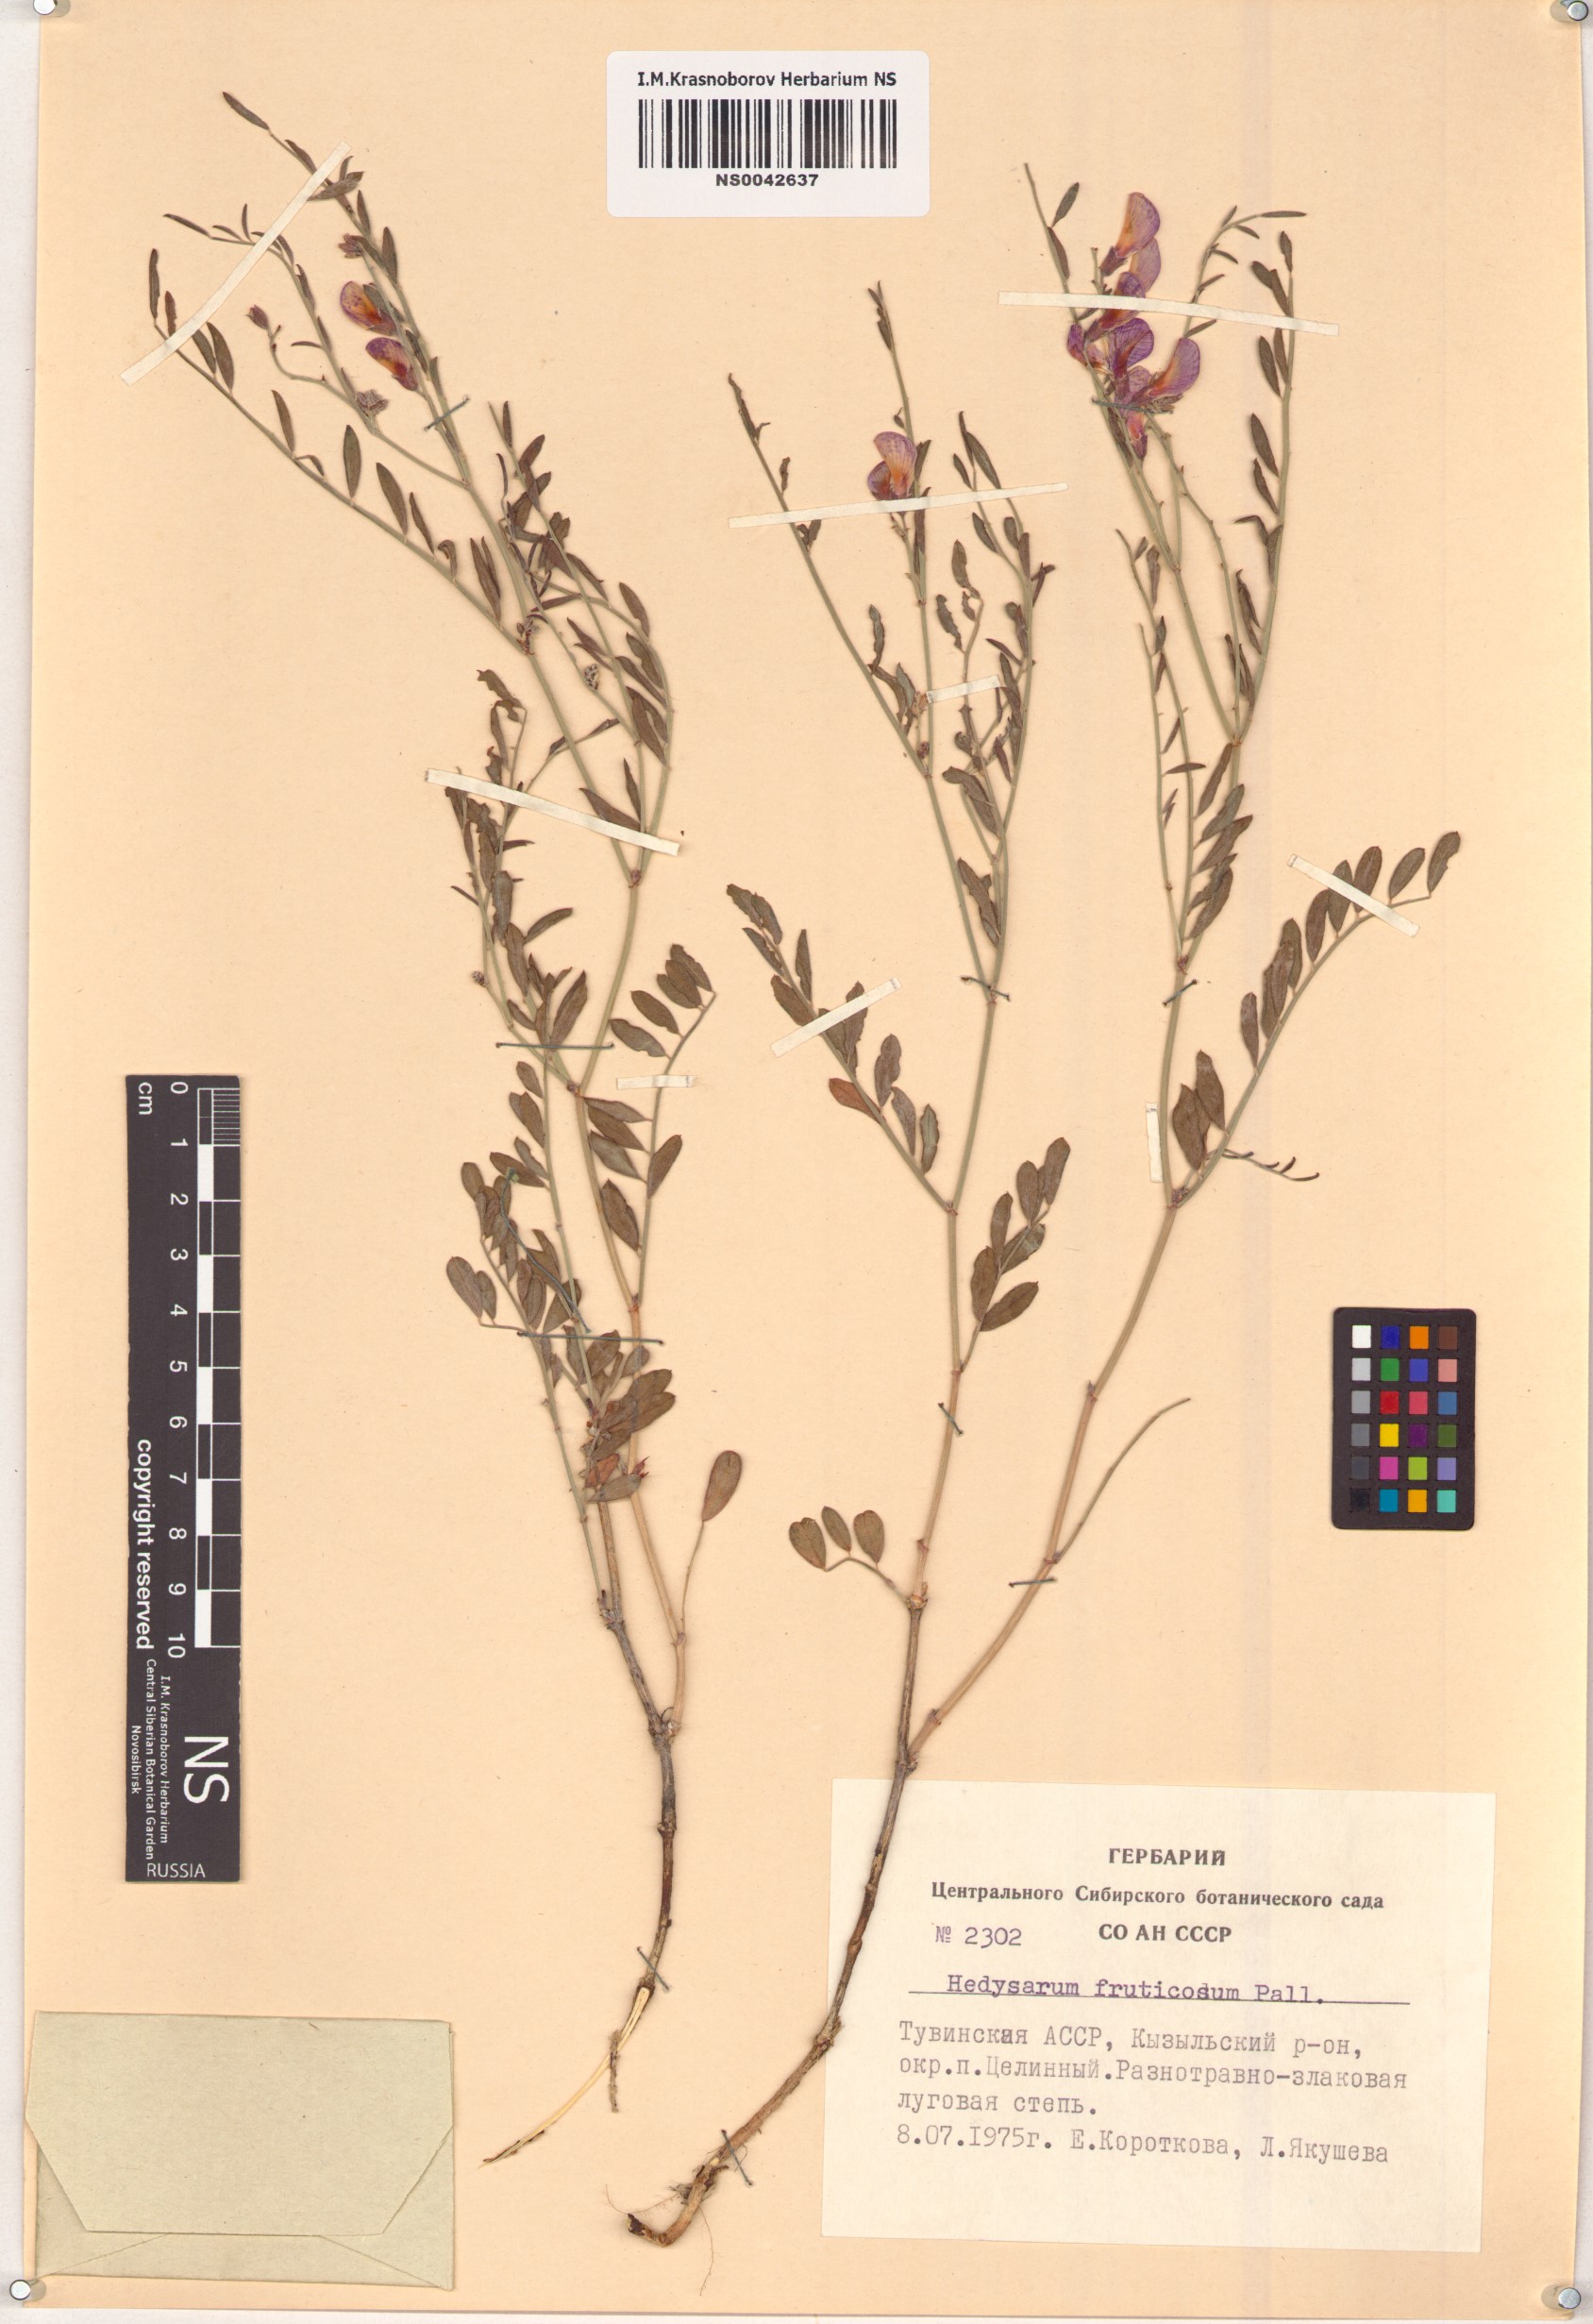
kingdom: Plantae
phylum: Tracheophyta
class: Magnoliopsida
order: Fabales
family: Fabaceae
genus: Corethrodendron
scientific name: Corethrodendron fruticosum
